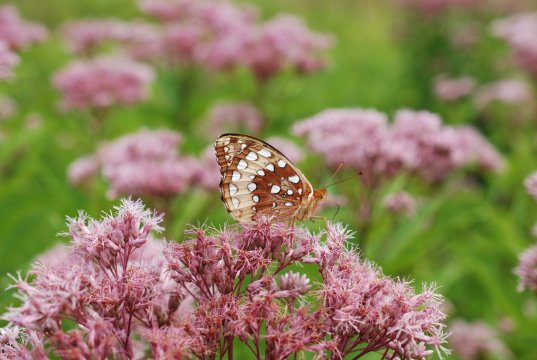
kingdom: Animalia
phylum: Arthropoda
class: Insecta
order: Lepidoptera
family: Nymphalidae
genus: Speyeria
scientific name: Speyeria cybele
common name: Great Spangled Fritillary
